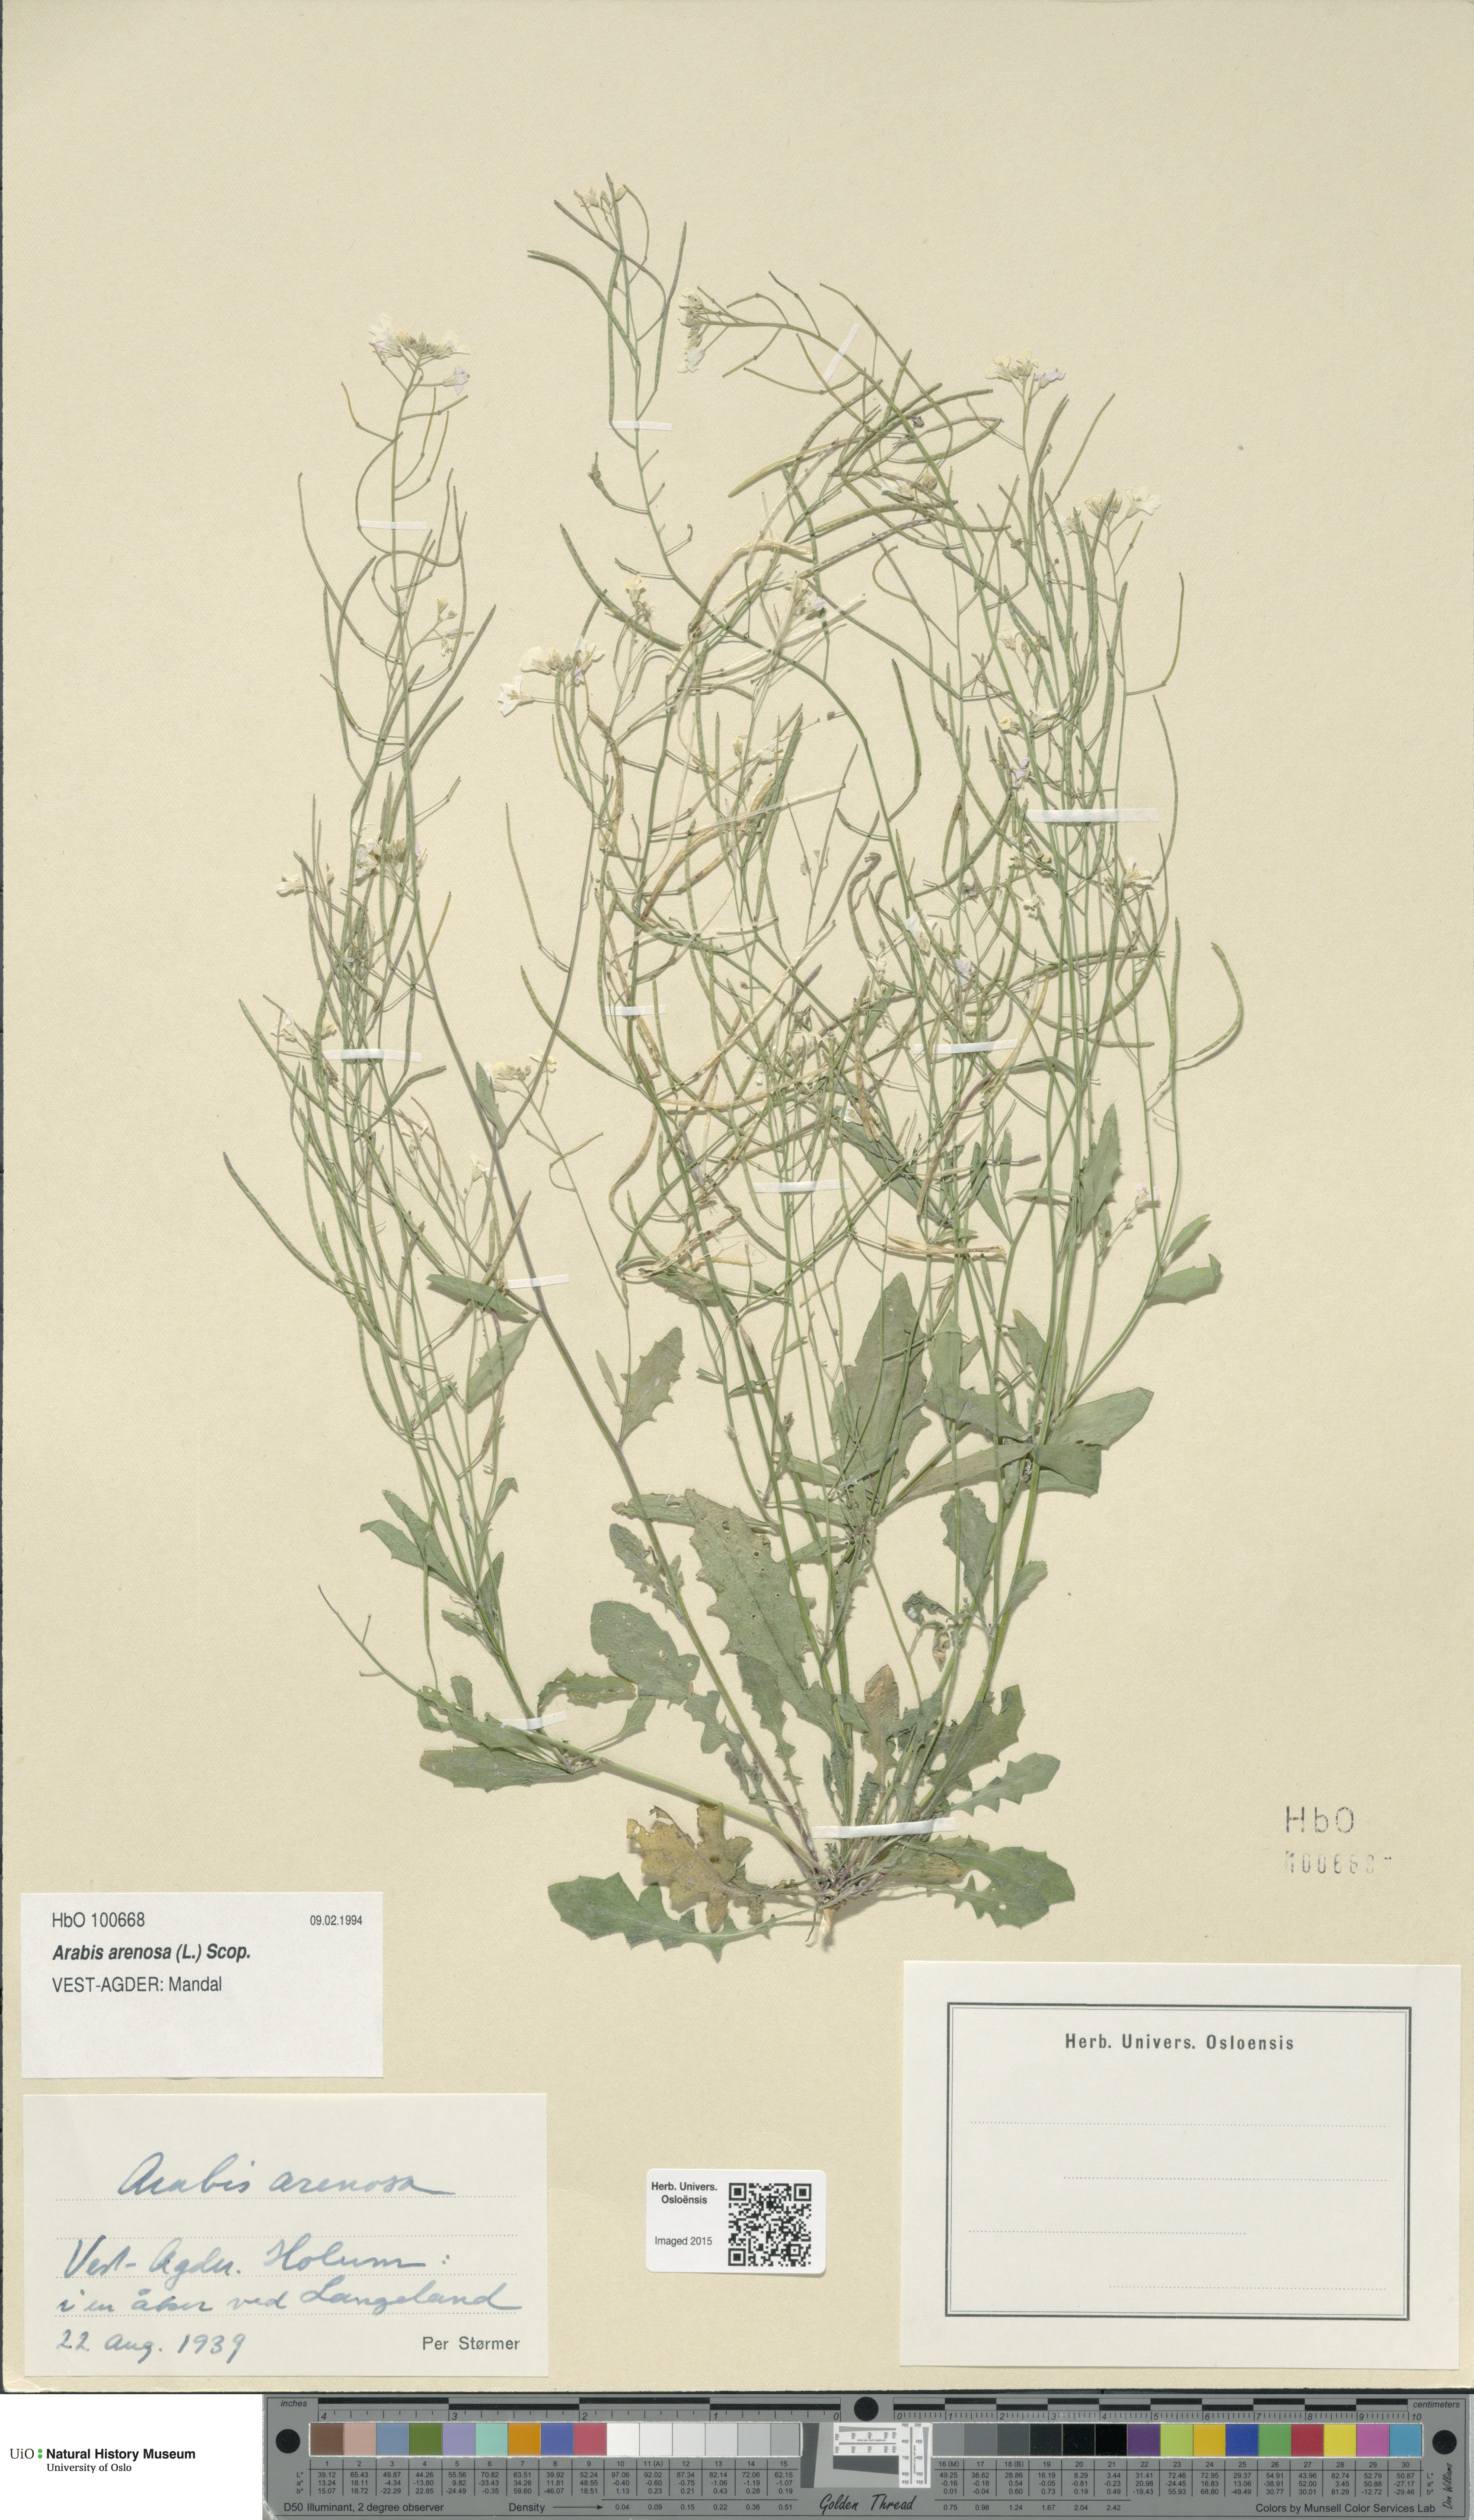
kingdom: Plantae
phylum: Tracheophyta
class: Magnoliopsida
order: Brassicales
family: Brassicaceae
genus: Arabidopsis
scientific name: Arabidopsis arenosa
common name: Sand rock-cress
